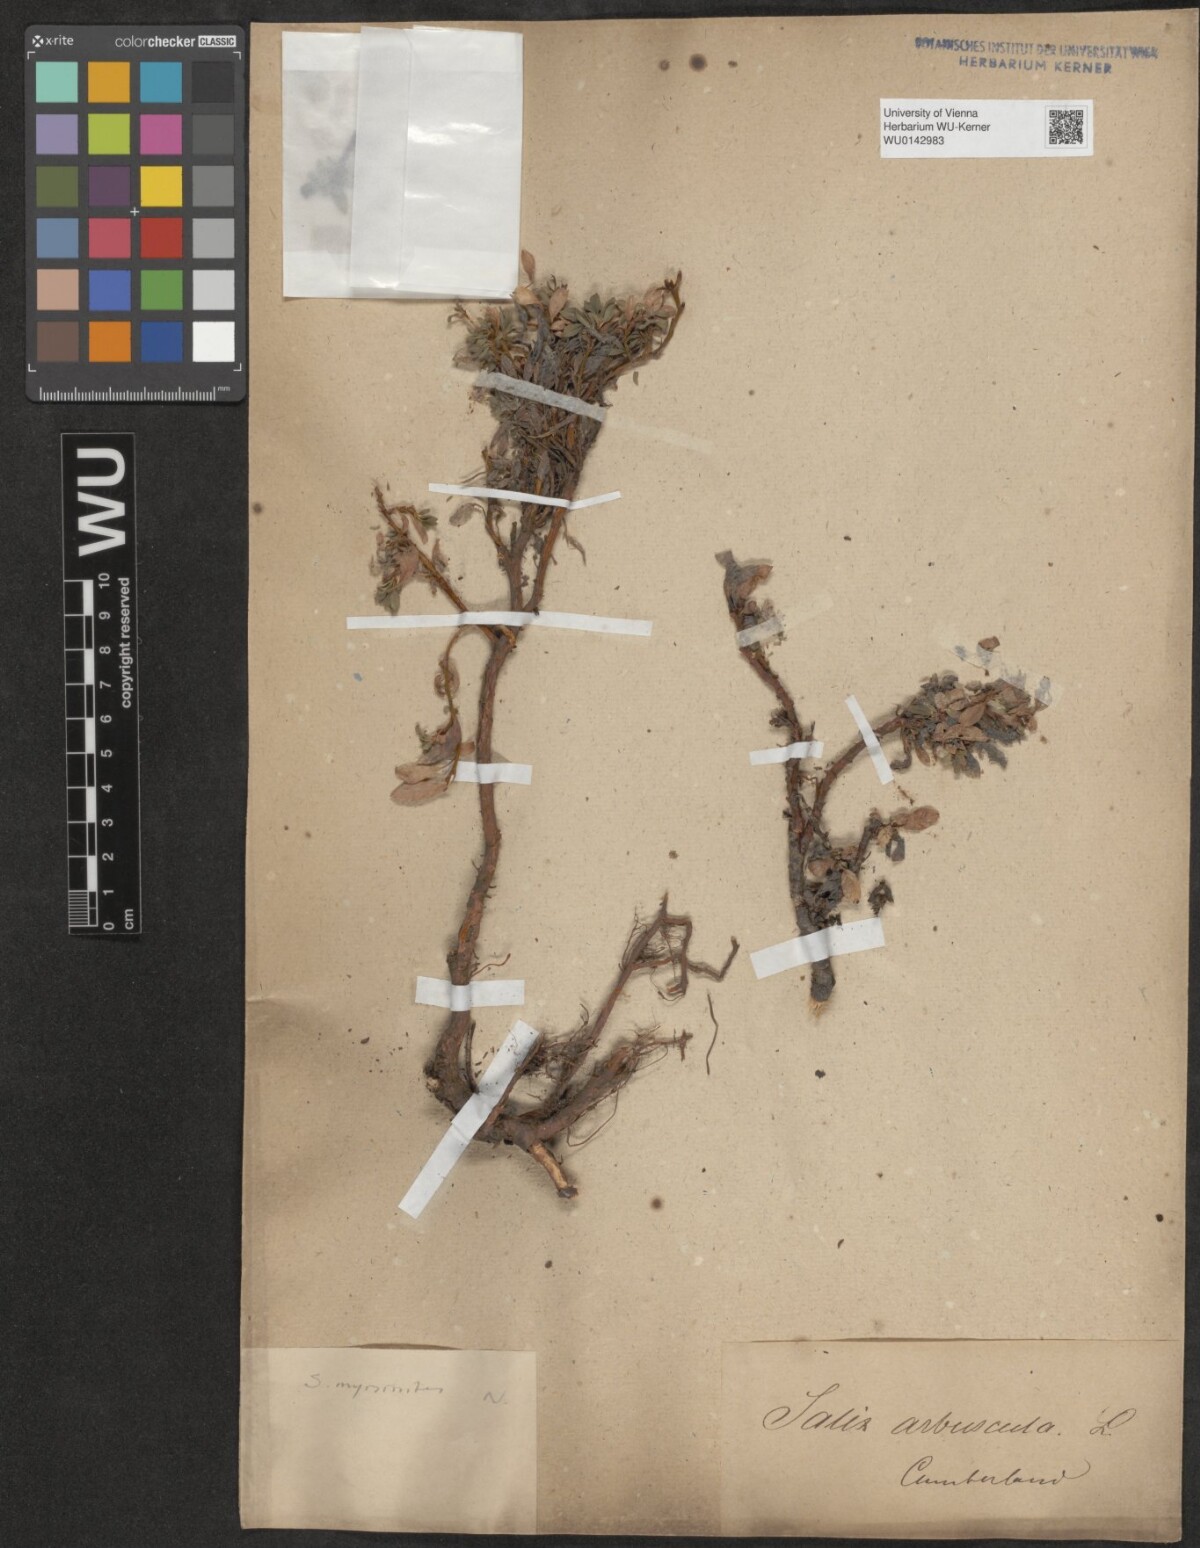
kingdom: Plantae
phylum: Tracheophyta
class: Magnoliopsida
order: Malpighiales
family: Salicaceae
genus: Salix
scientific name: Salix myrsinites
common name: Myrtle willow
